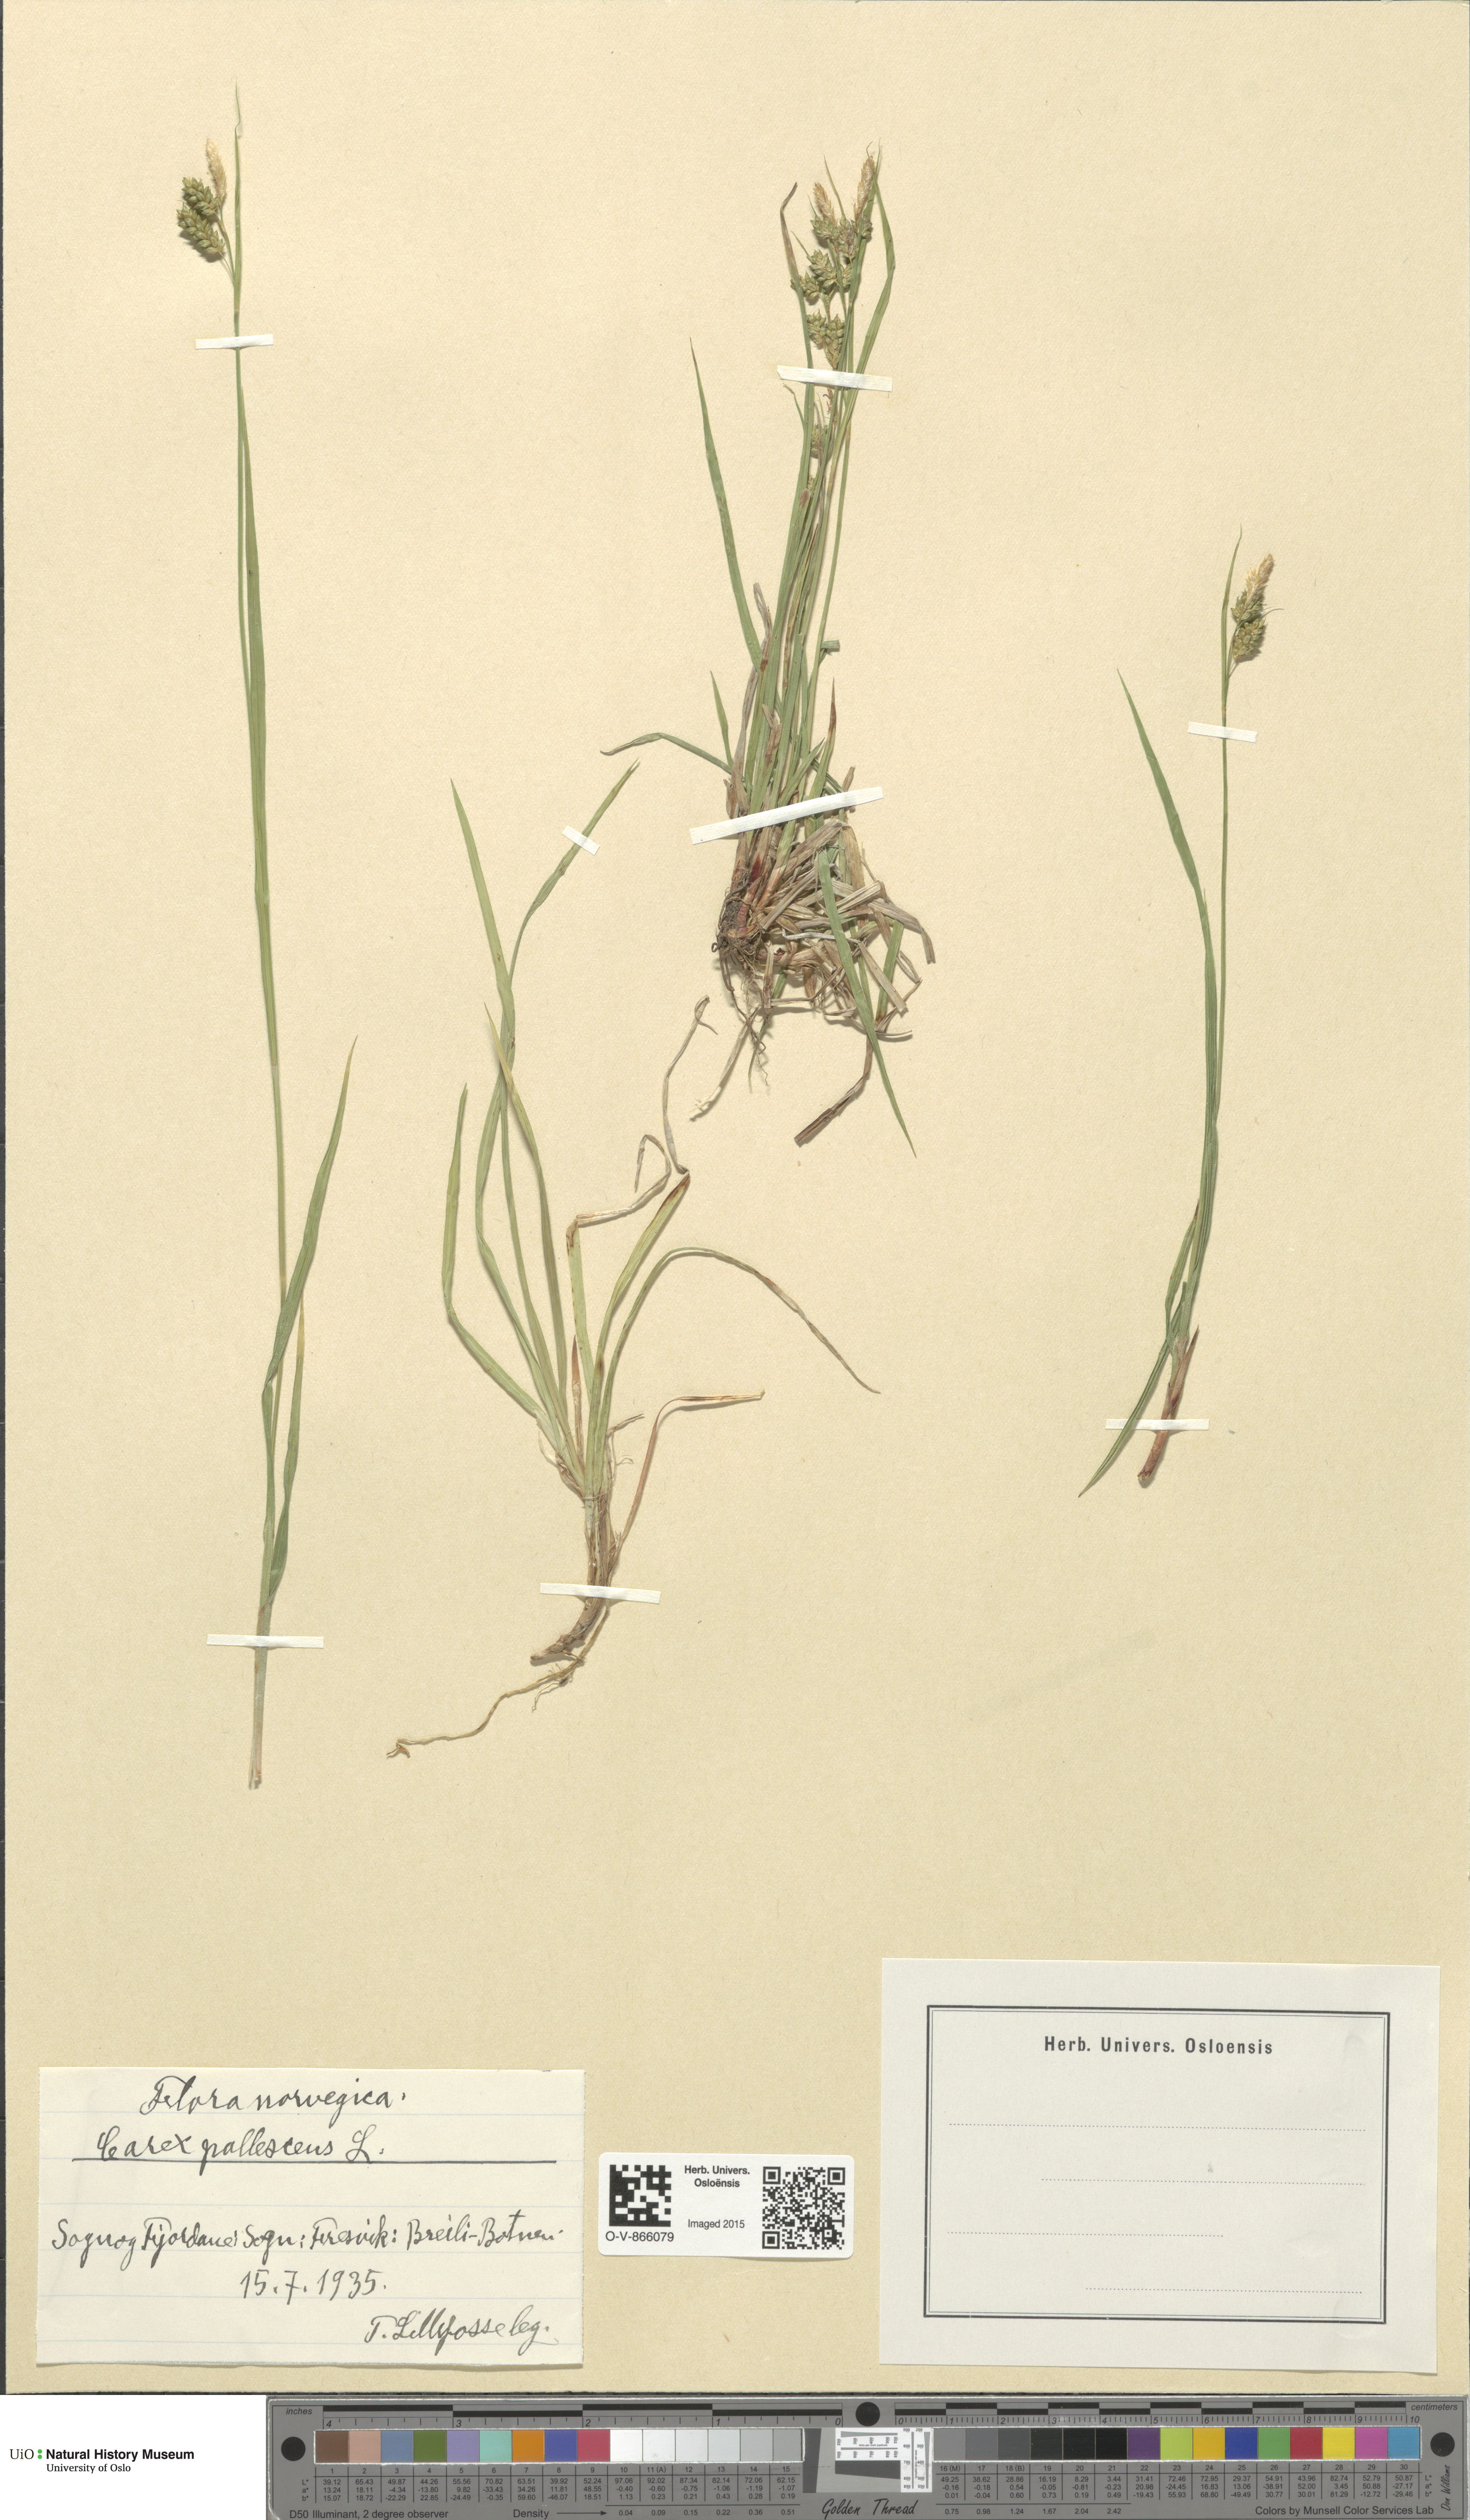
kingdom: Plantae
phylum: Tracheophyta
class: Liliopsida
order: Poales
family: Cyperaceae
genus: Carex
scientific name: Carex pallescens
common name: Pale sedge
